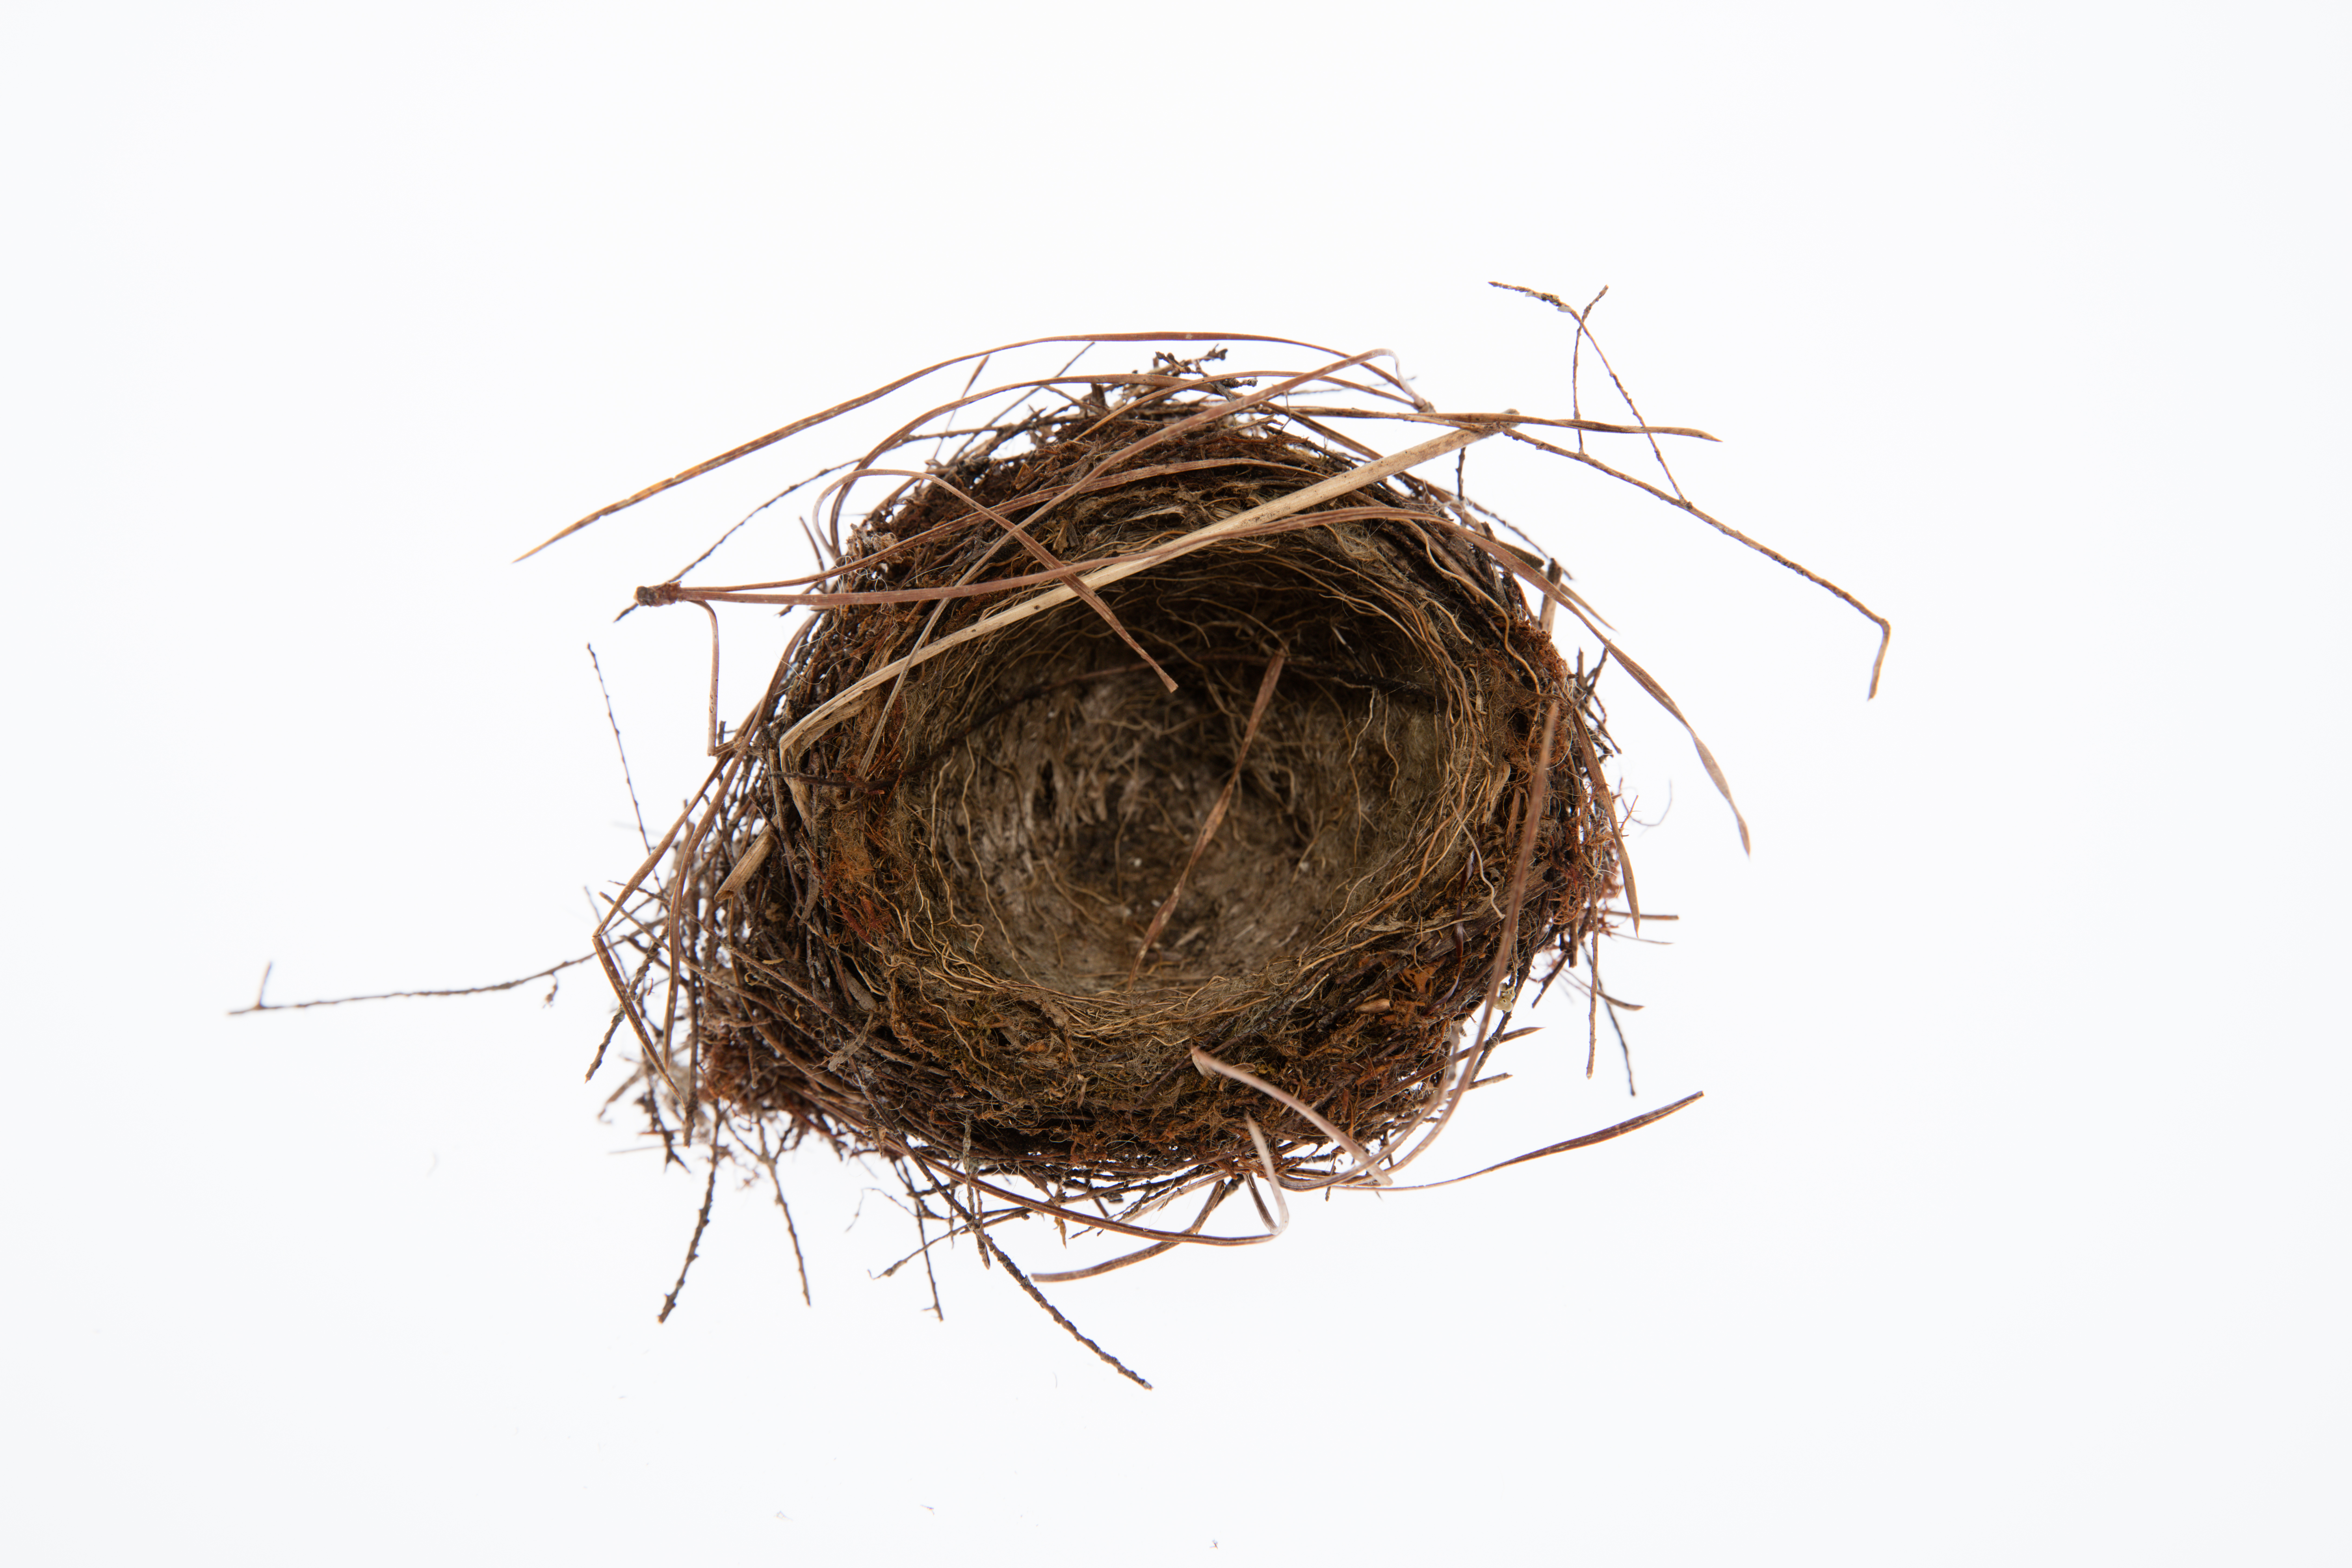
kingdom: Animalia
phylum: Chordata
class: Aves
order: Passeriformes
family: Prunellidae
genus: Prunella
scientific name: Prunella modularis
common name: Dunnock
